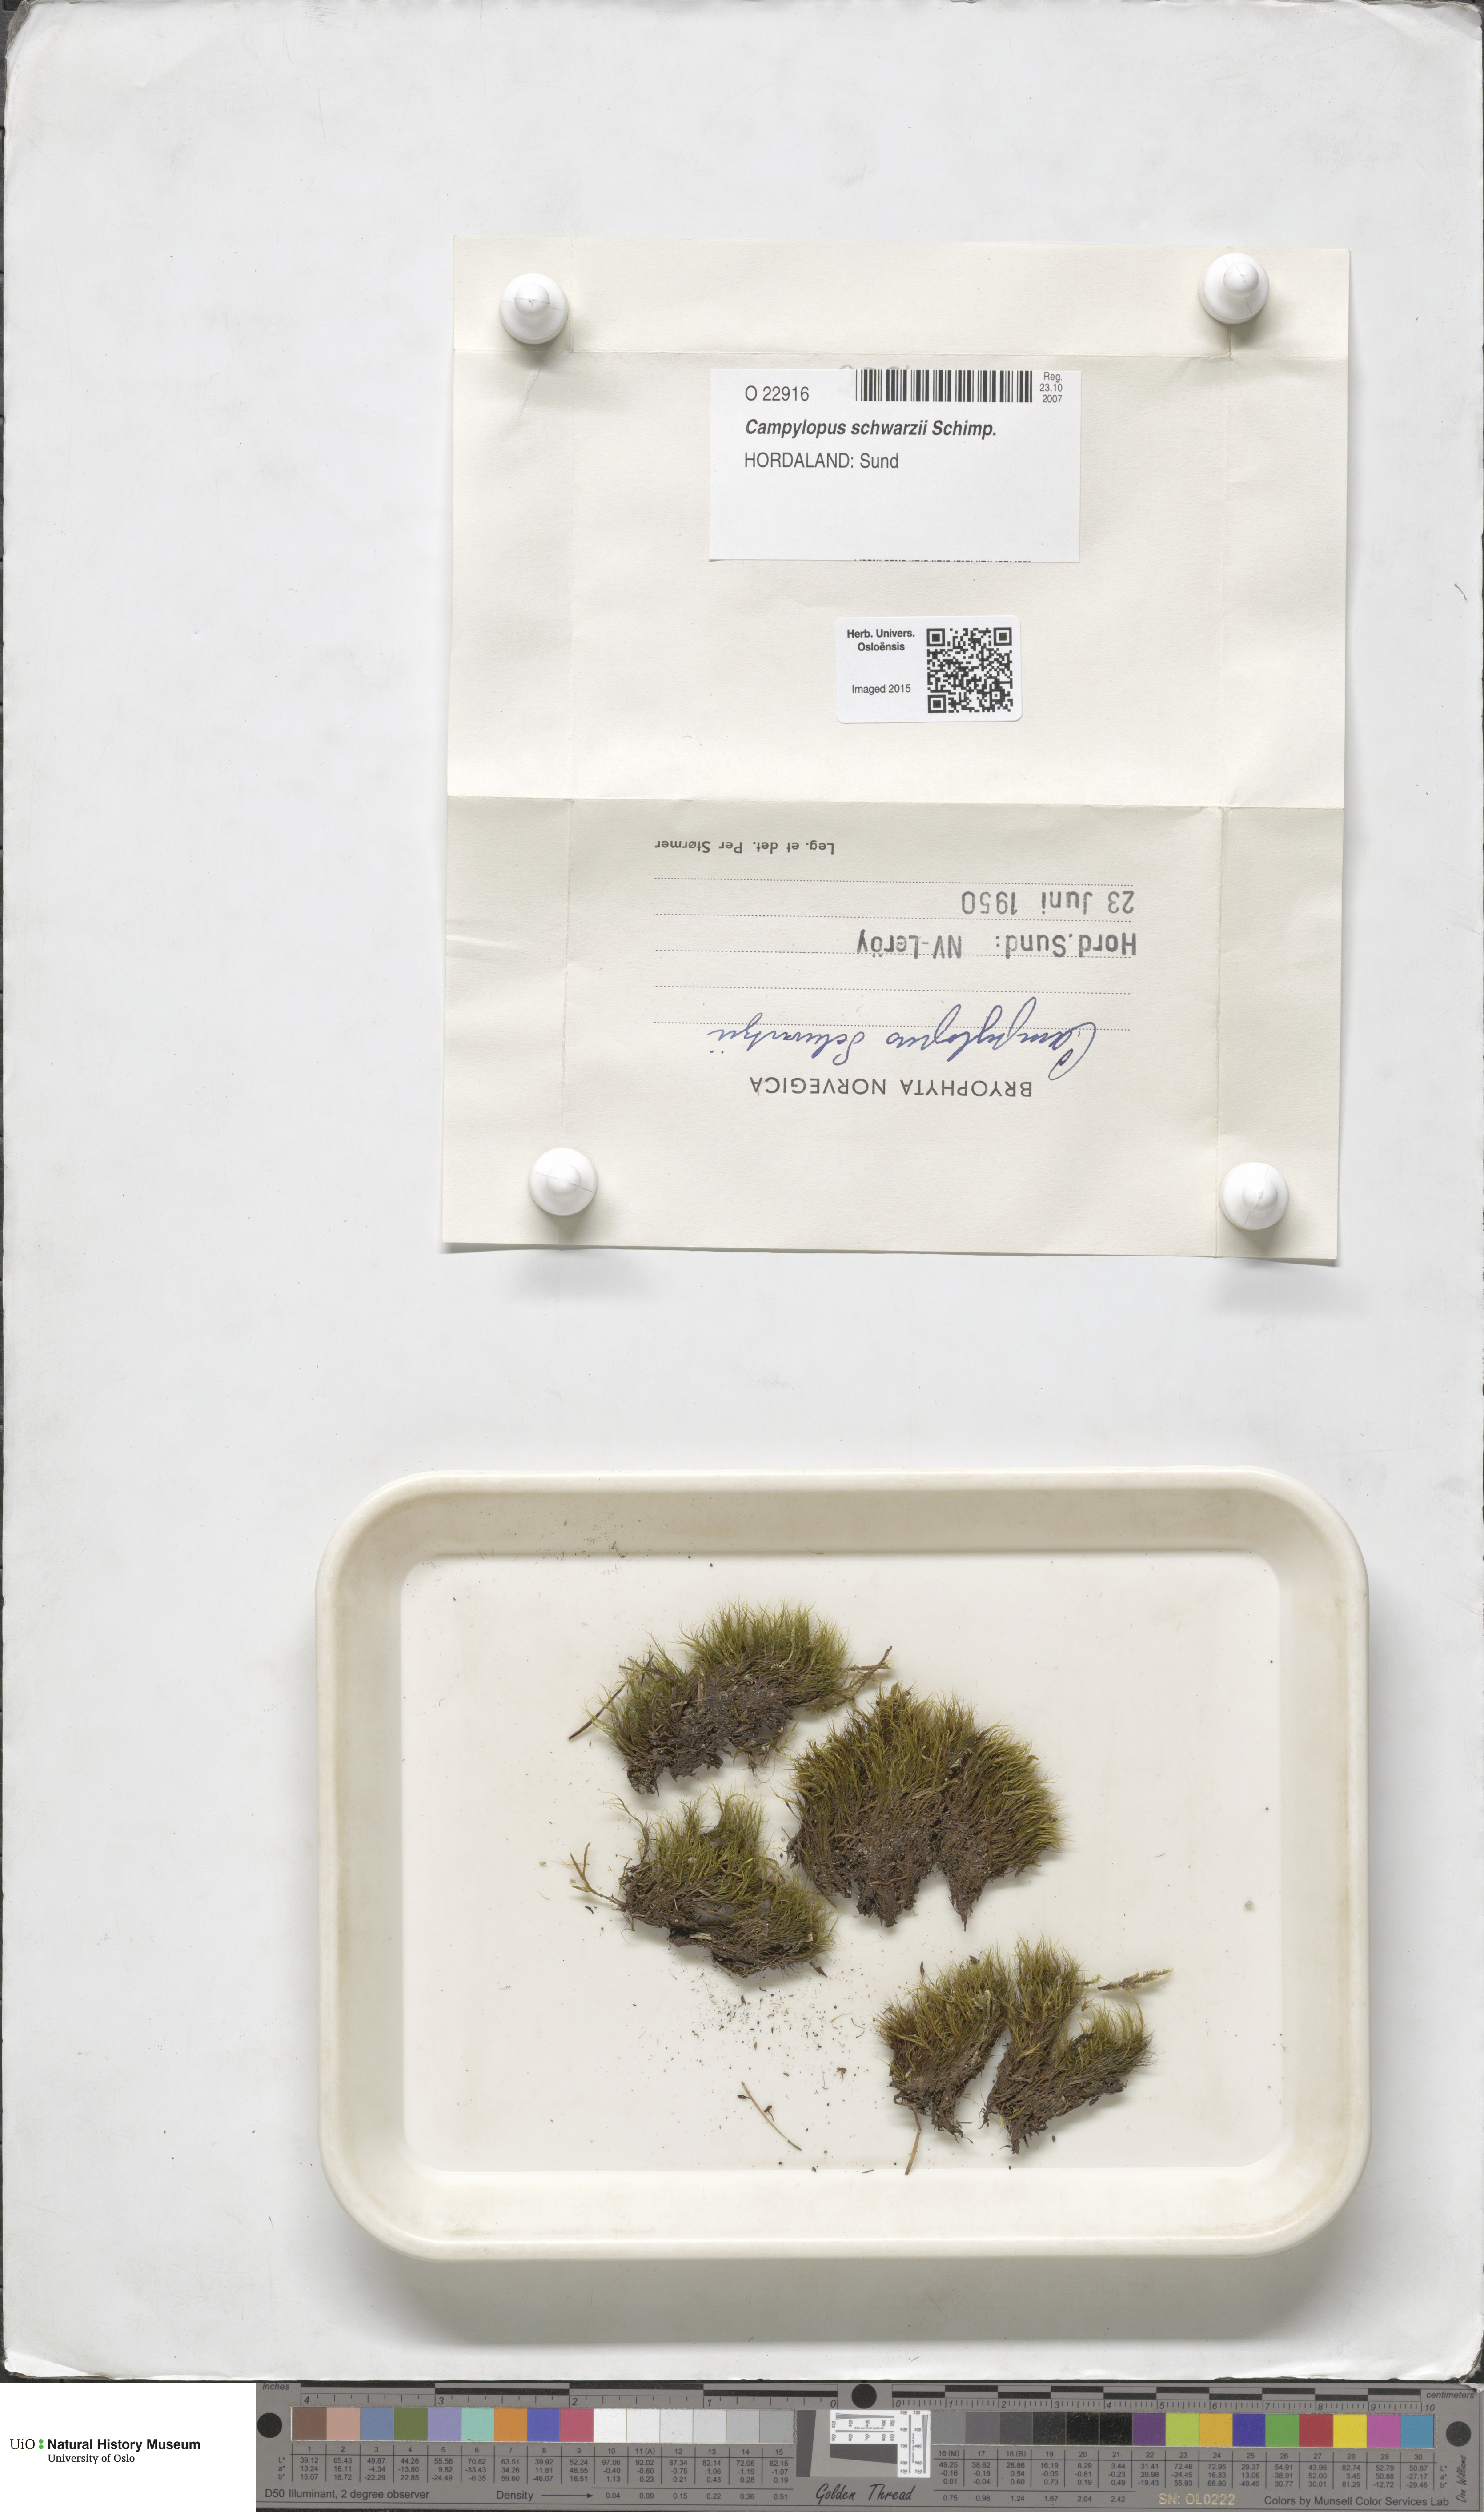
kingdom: Plantae
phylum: Bryophyta
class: Bryopsida
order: Dicranales
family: Leucobryaceae
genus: Campylopus
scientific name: Campylopus gracilis
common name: Schwarz's swan-neck moss
